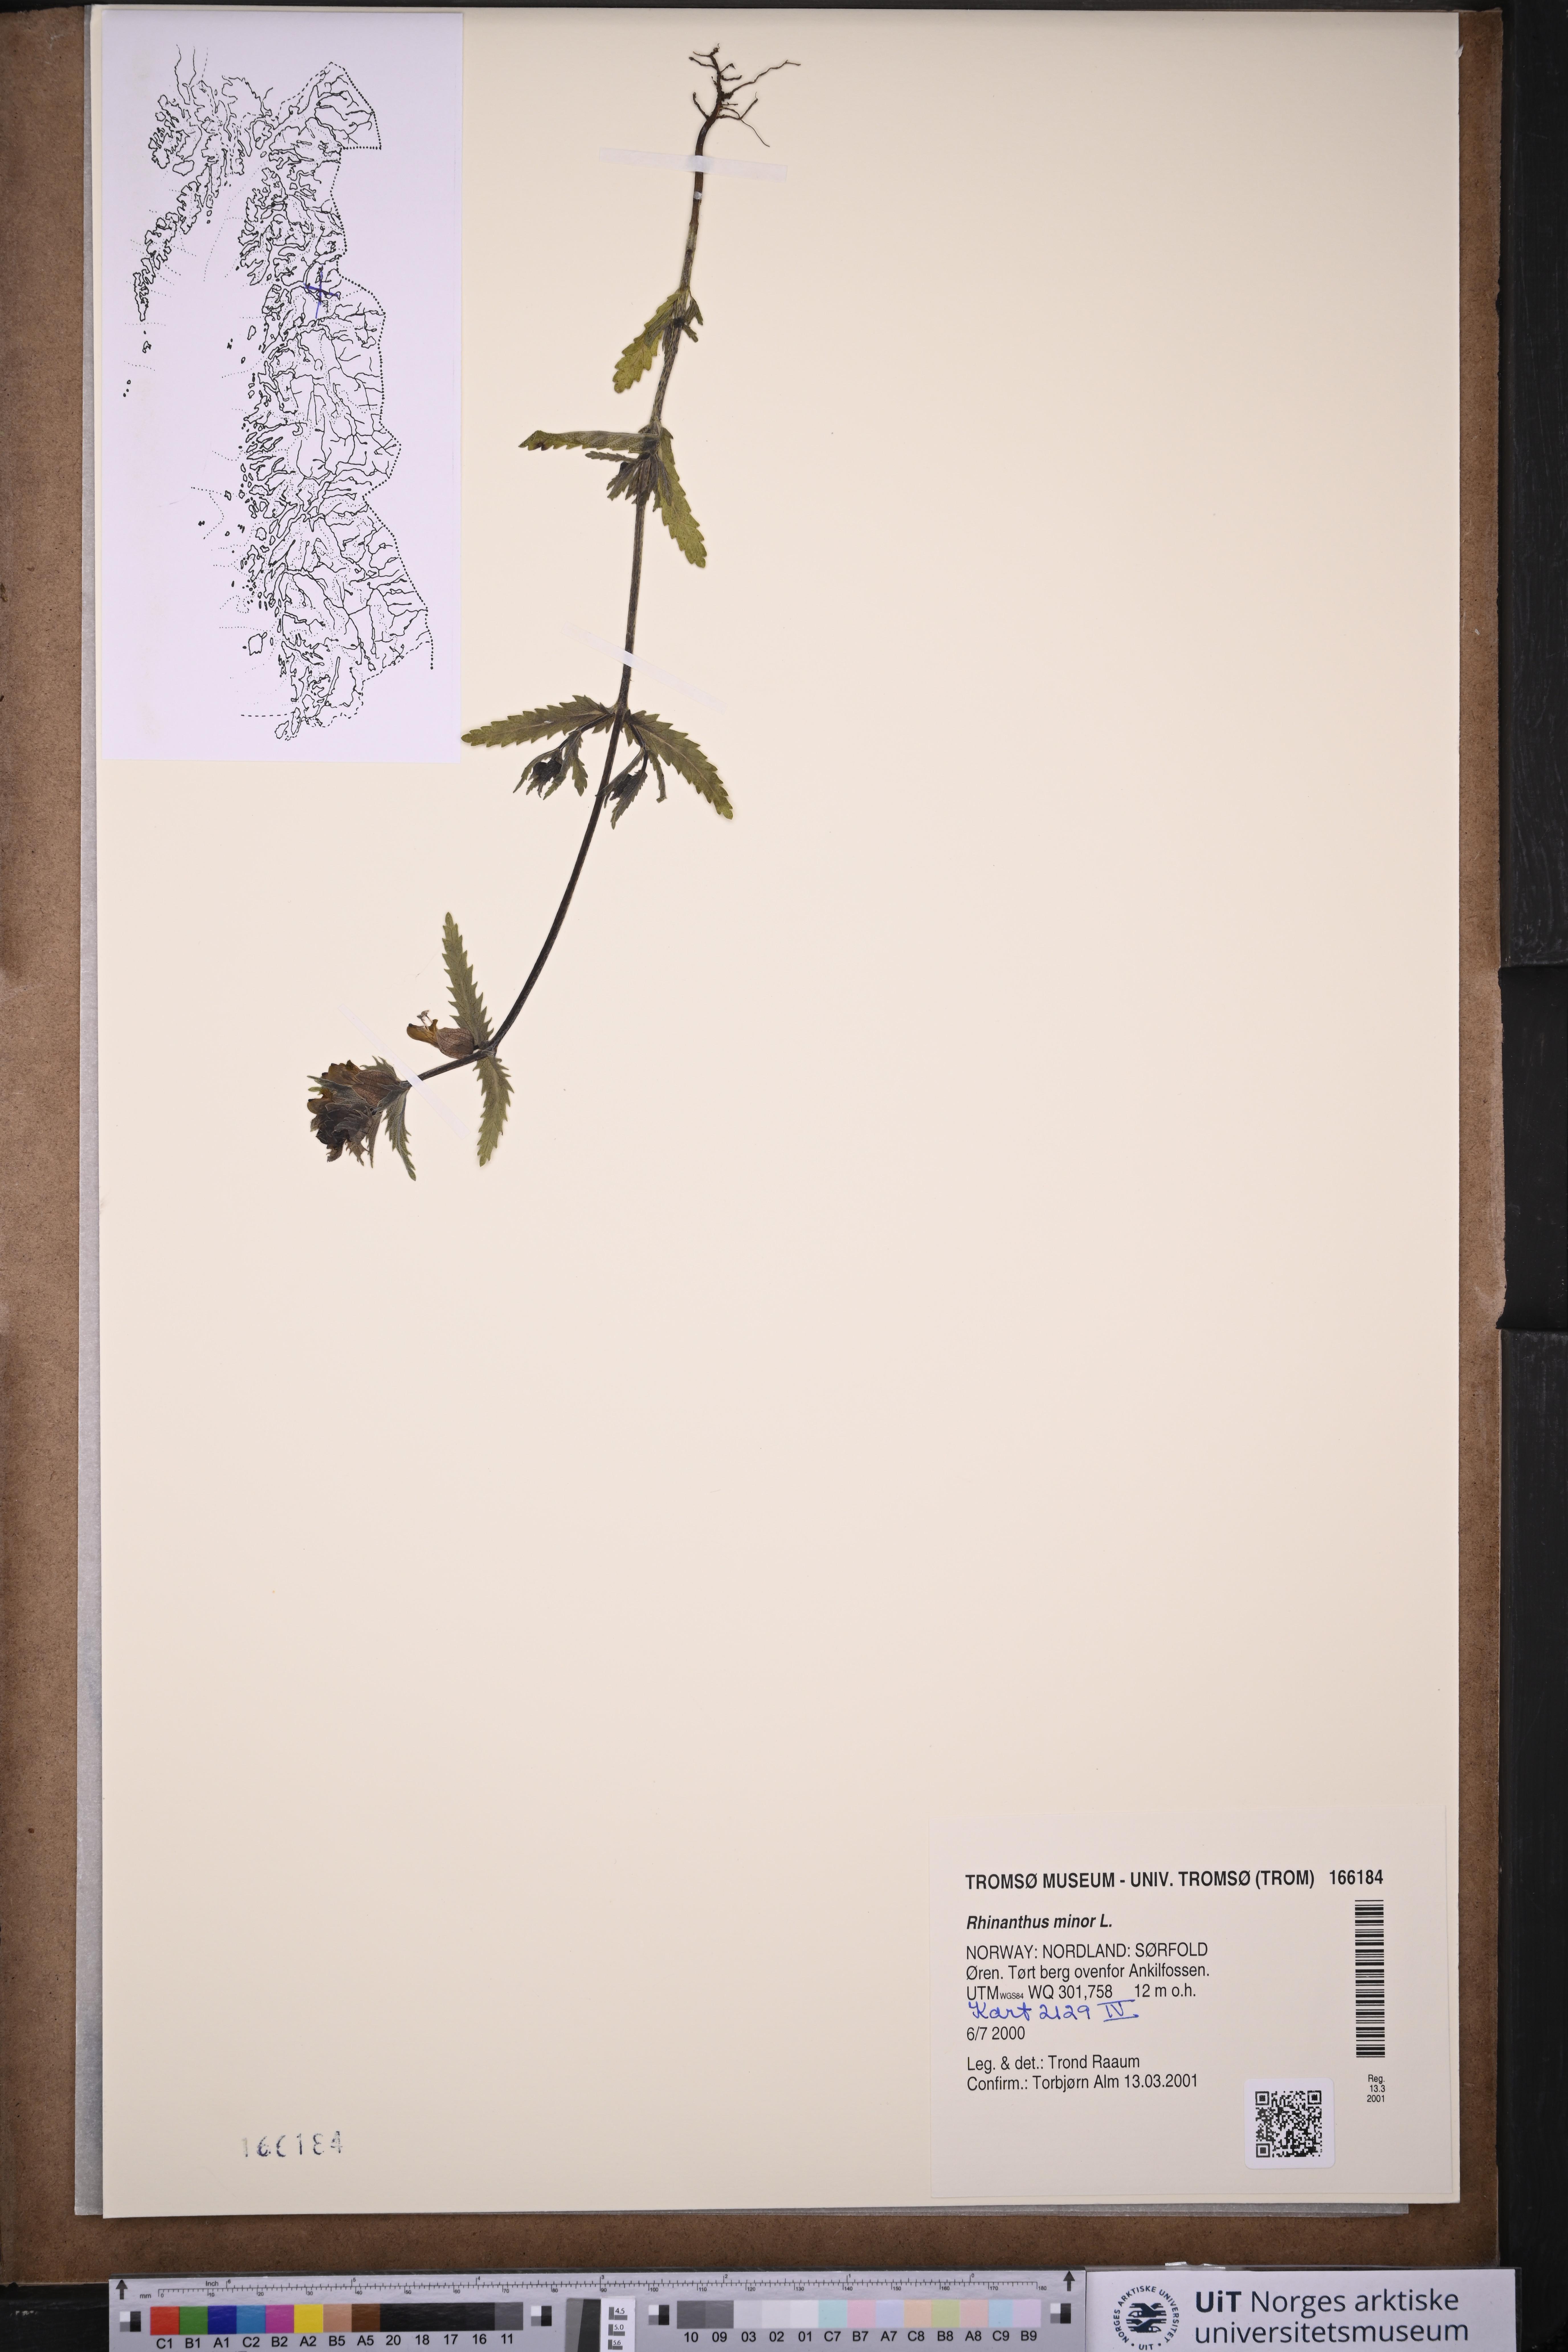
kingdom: Plantae
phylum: Tracheophyta
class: Magnoliopsida
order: Lamiales
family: Orobanchaceae
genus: Rhinanthus
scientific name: Rhinanthus minor
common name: Yellow-rattle
